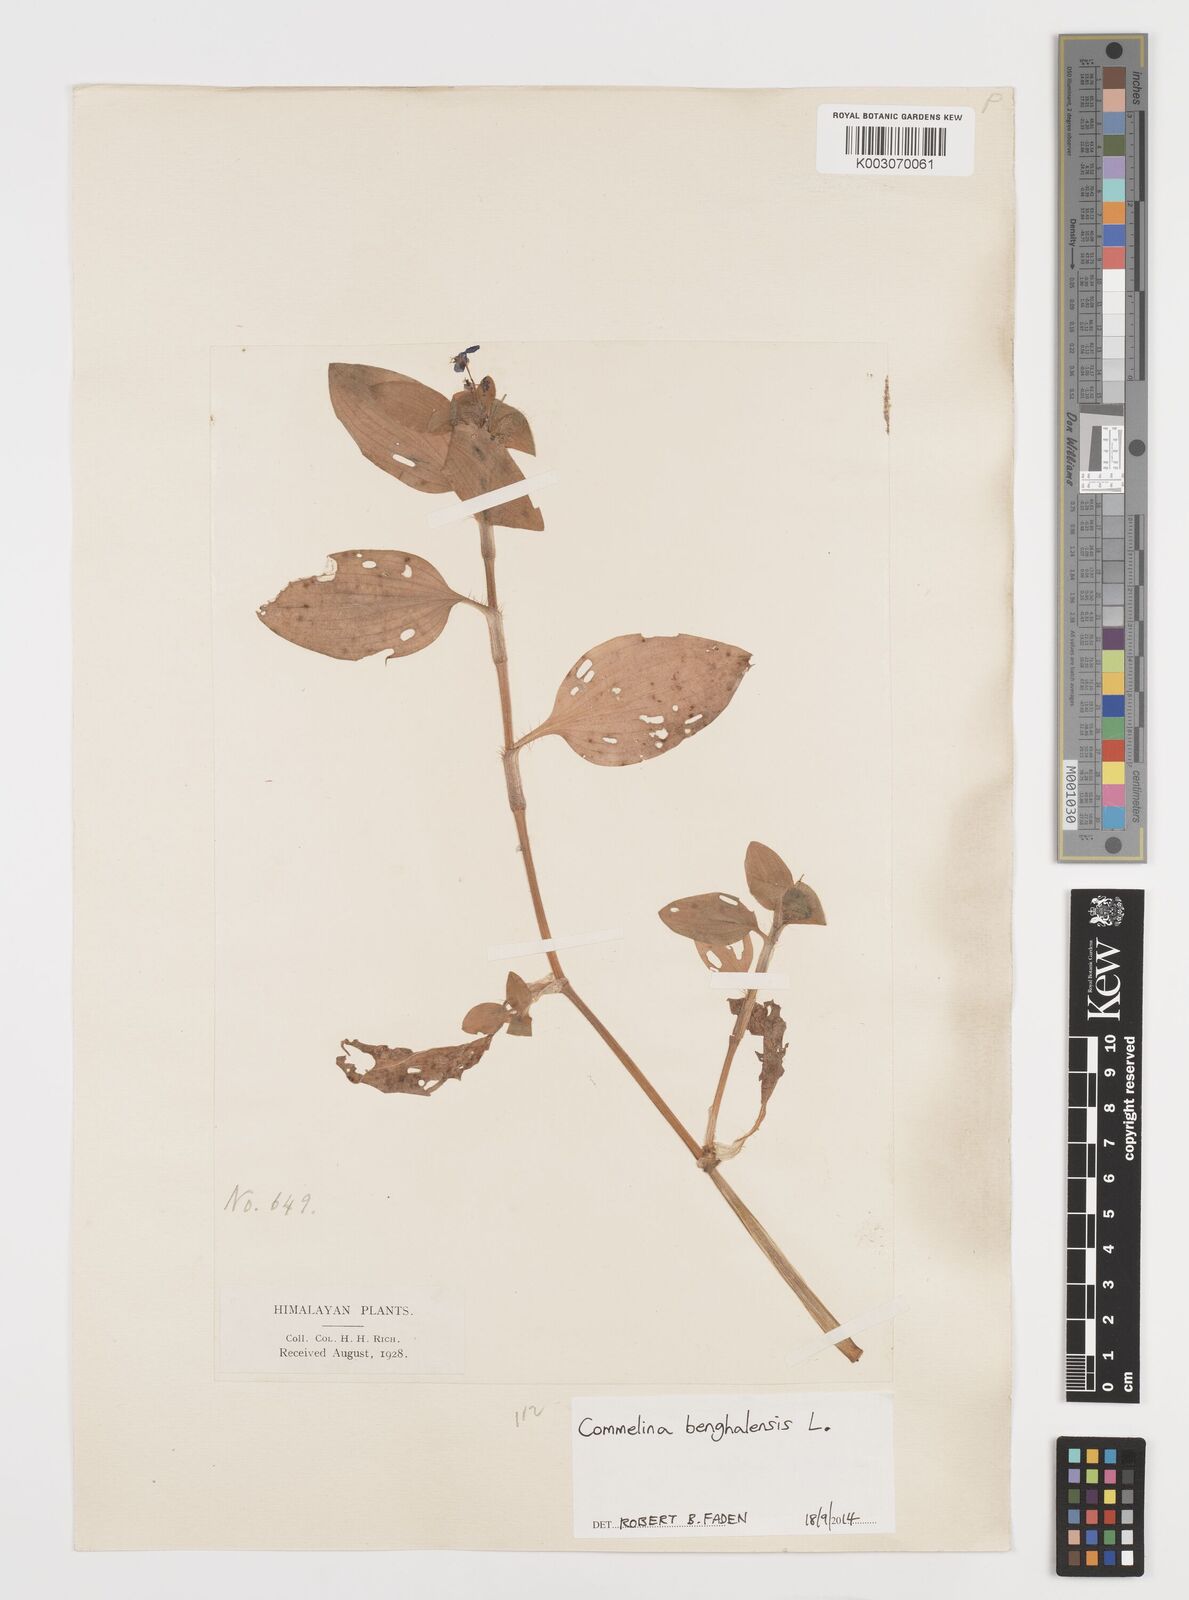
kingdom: Plantae
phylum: Tracheophyta
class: Liliopsida
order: Commelinales
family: Commelinaceae
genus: Commelina
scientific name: Commelina benghalensis
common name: Jio
